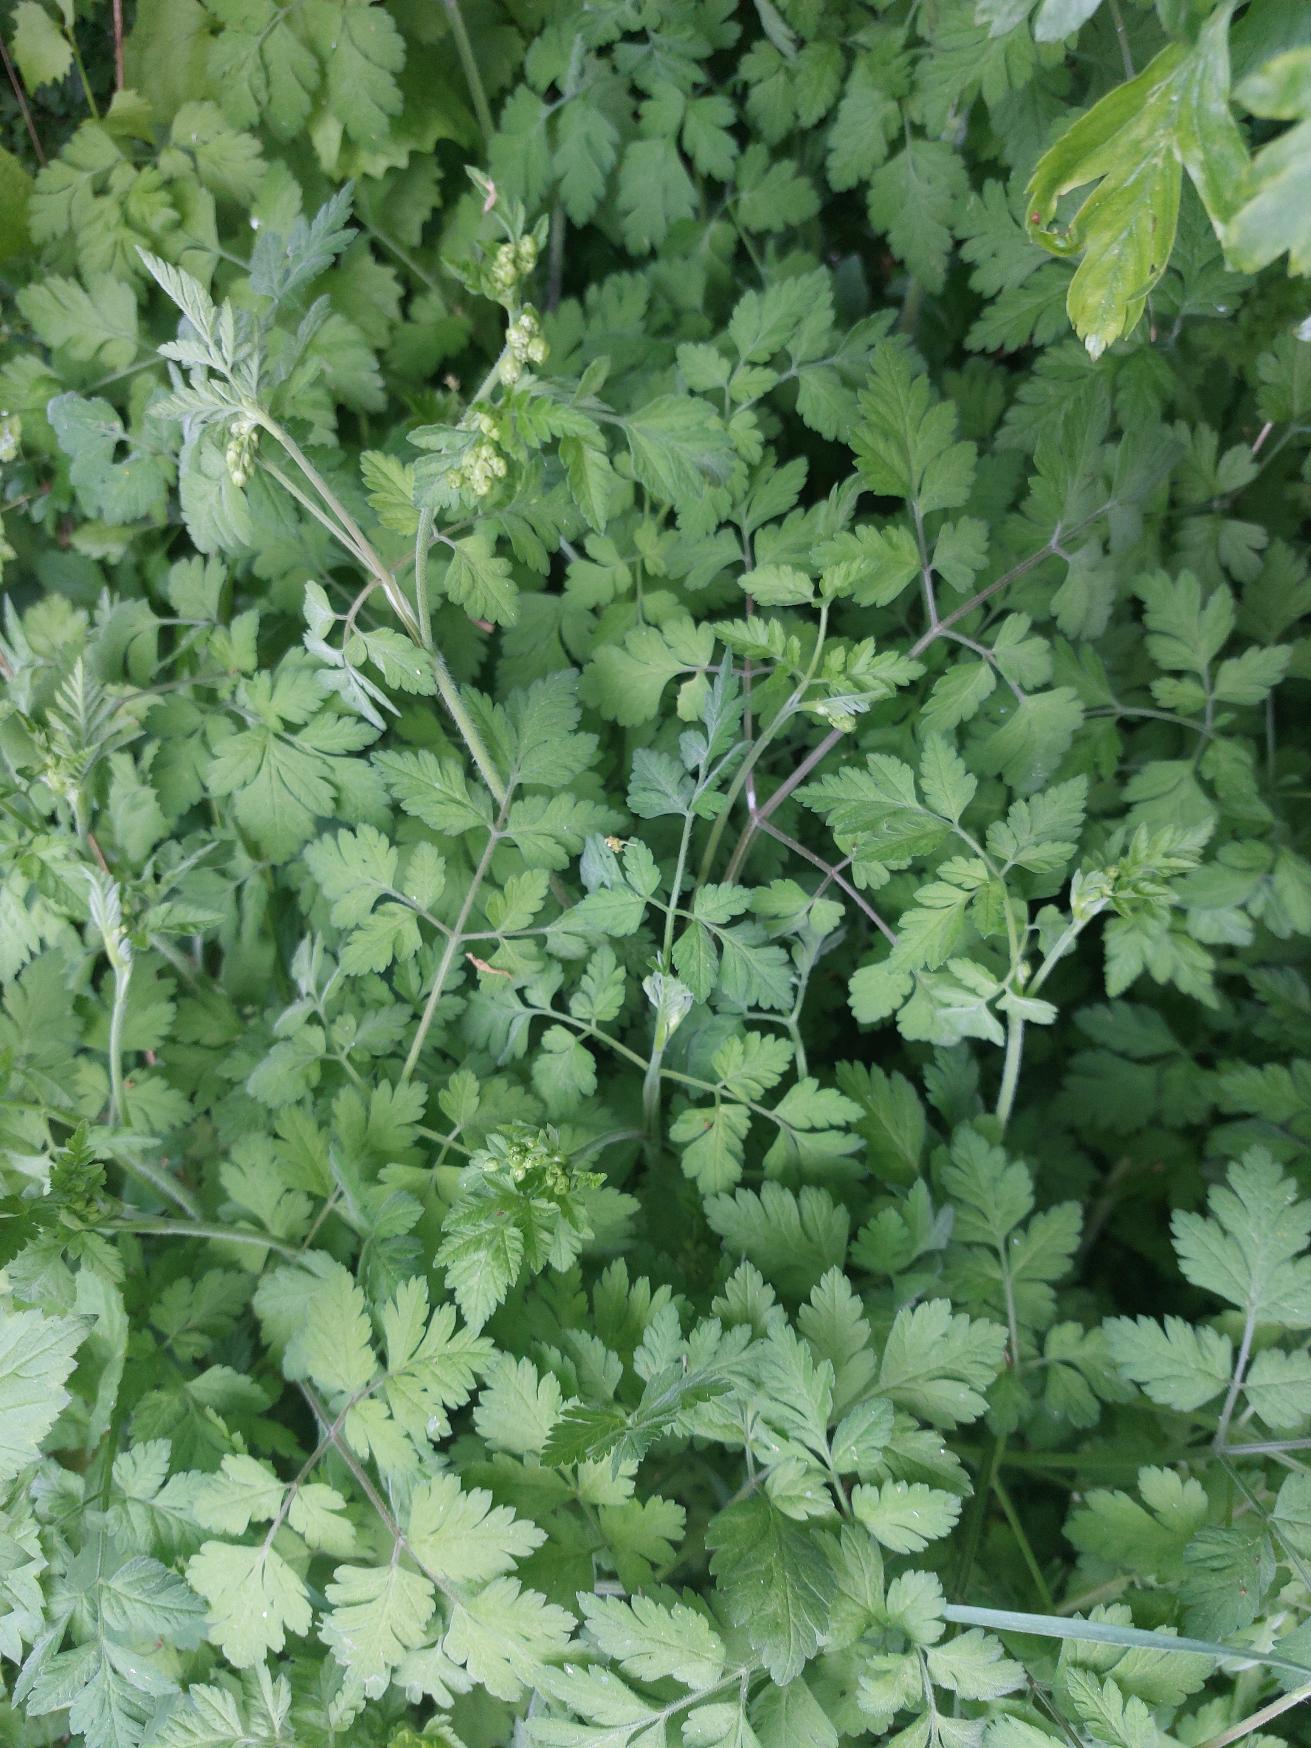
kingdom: Plantae
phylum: Tracheophyta
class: Magnoliopsida
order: Apiales
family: Apiaceae
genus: Chaerophyllum
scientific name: Chaerophyllum temulum
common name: Almindelig hulsvøb
